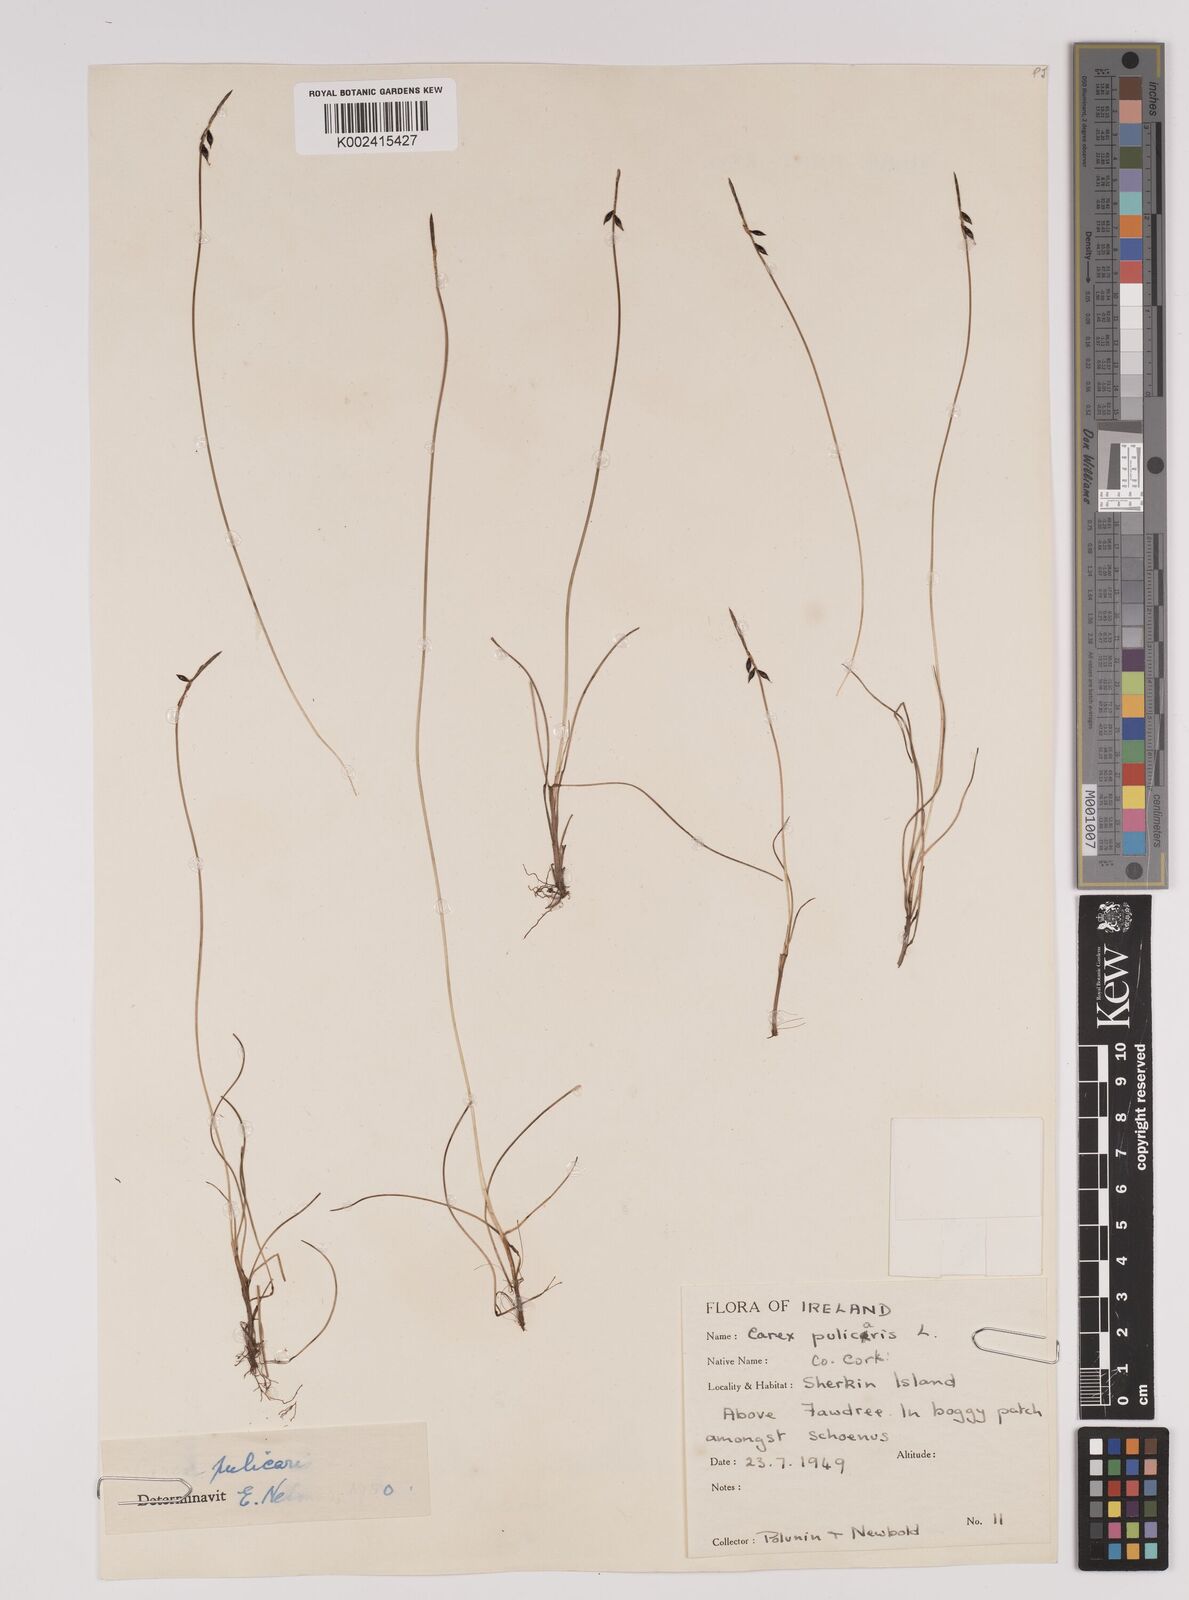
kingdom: Plantae
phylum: Tracheophyta
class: Liliopsida
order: Poales
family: Cyperaceae
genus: Carex
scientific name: Carex pulicaris
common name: Flea sedge
